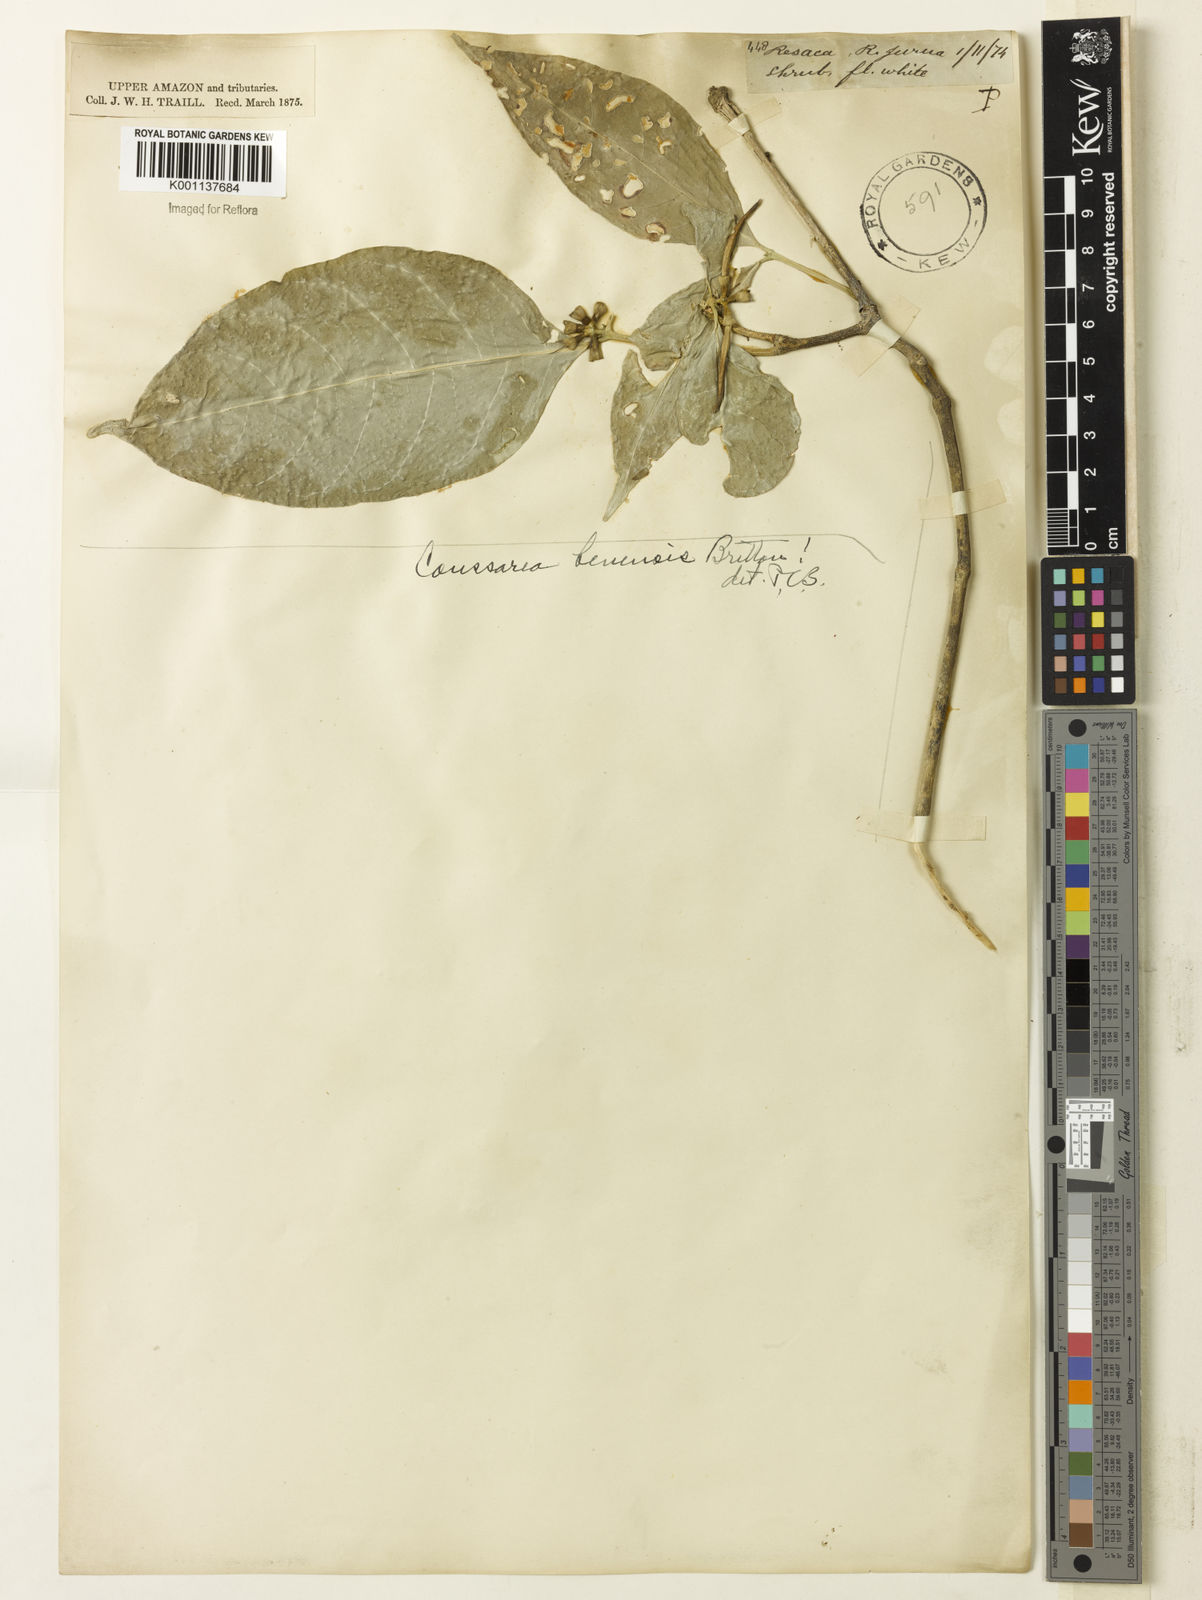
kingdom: Plantae
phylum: Tracheophyta
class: Magnoliopsida
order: Gentianales
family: Rubiaceae
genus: Coussarea
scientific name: Coussarea
